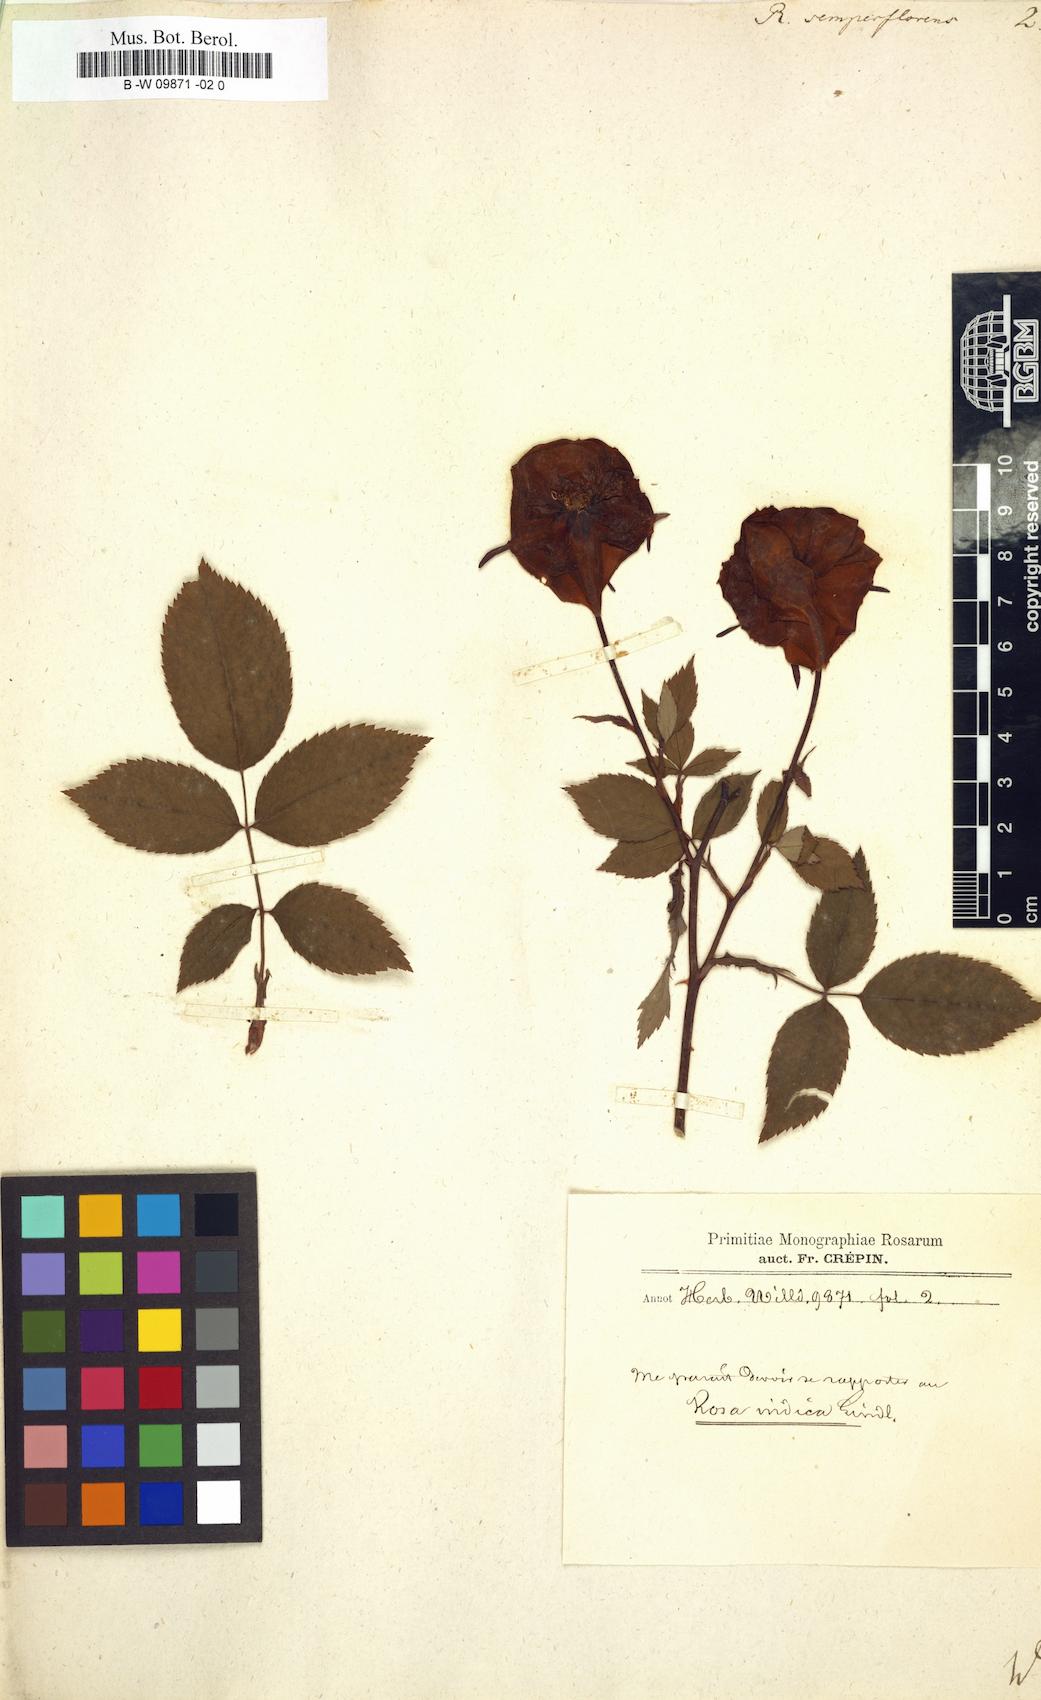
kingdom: Plantae
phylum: Tracheophyta
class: Magnoliopsida
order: Rosales
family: Rosaceae
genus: Rosa
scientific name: Rosa chinensis
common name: China rose
